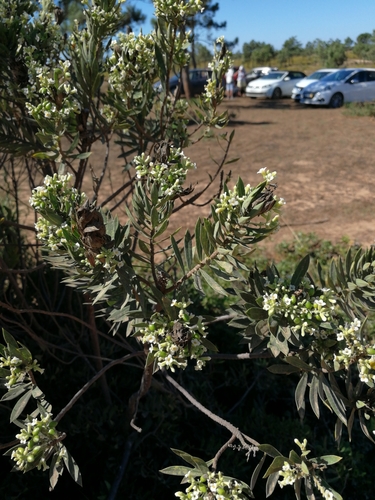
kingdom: Plantae
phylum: Tracheophyta
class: Magnoliopsida
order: Malvales
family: Thymelaeaceae
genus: Daphne
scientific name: Daphne gnidium
